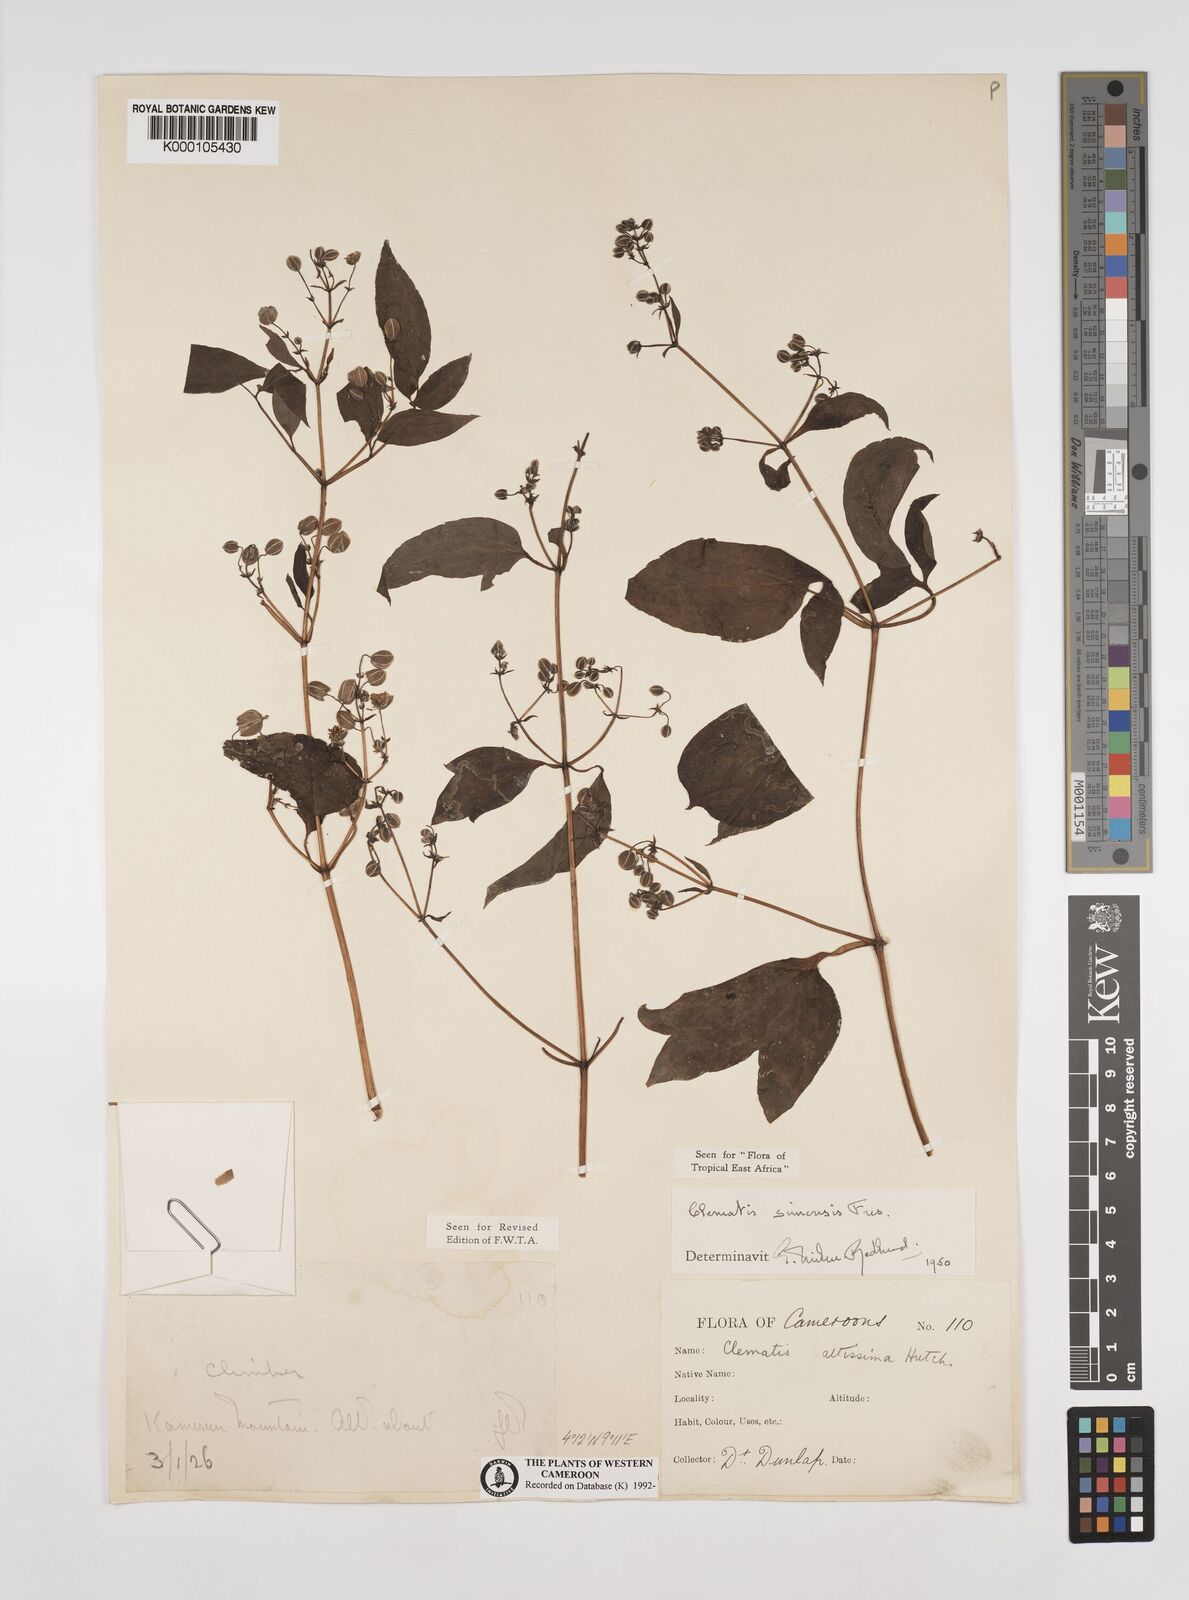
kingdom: Plantae
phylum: Tracheophyta
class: Magnoliopsida
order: Ranunculales
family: Ranunculaceae
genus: Clematis
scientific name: Clematis simensis
